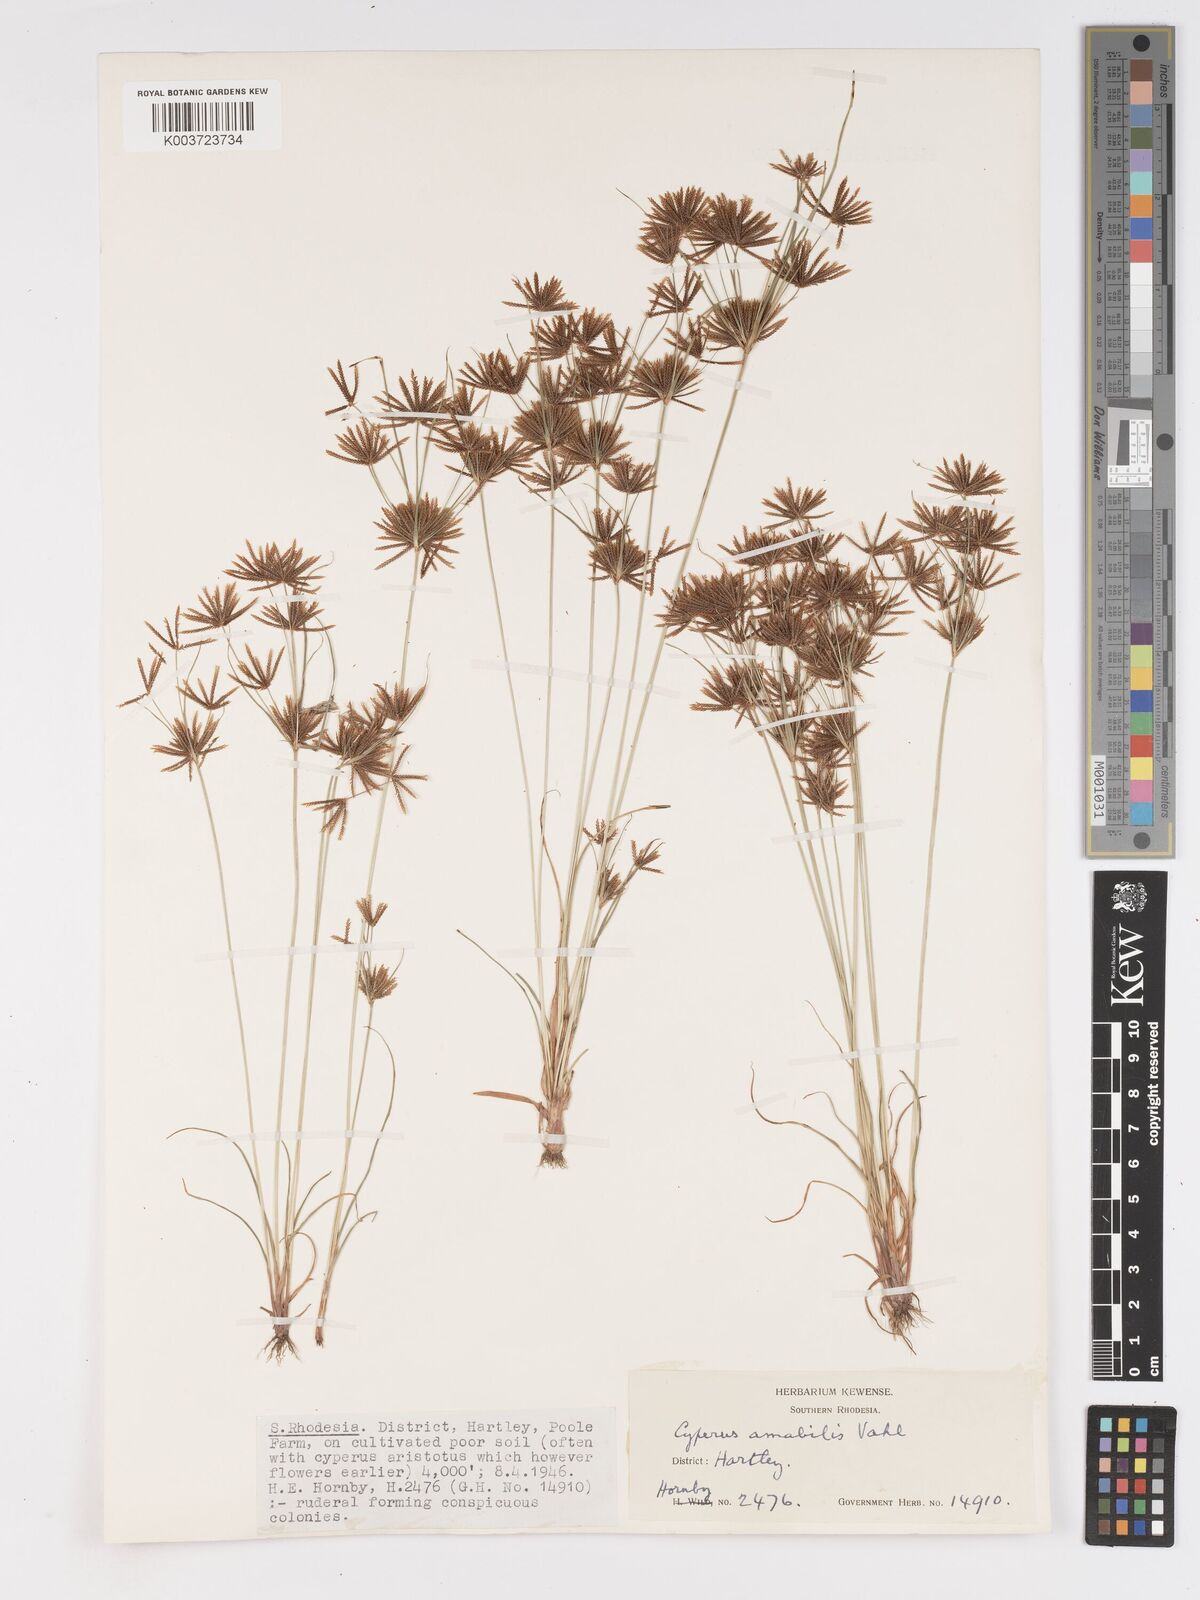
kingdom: Plantae
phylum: Tracheophyta
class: Liliopsida
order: Poales
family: Cyperaceae
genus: Cyperus
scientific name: Cyperus amabilis
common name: Foothill flat sedge
